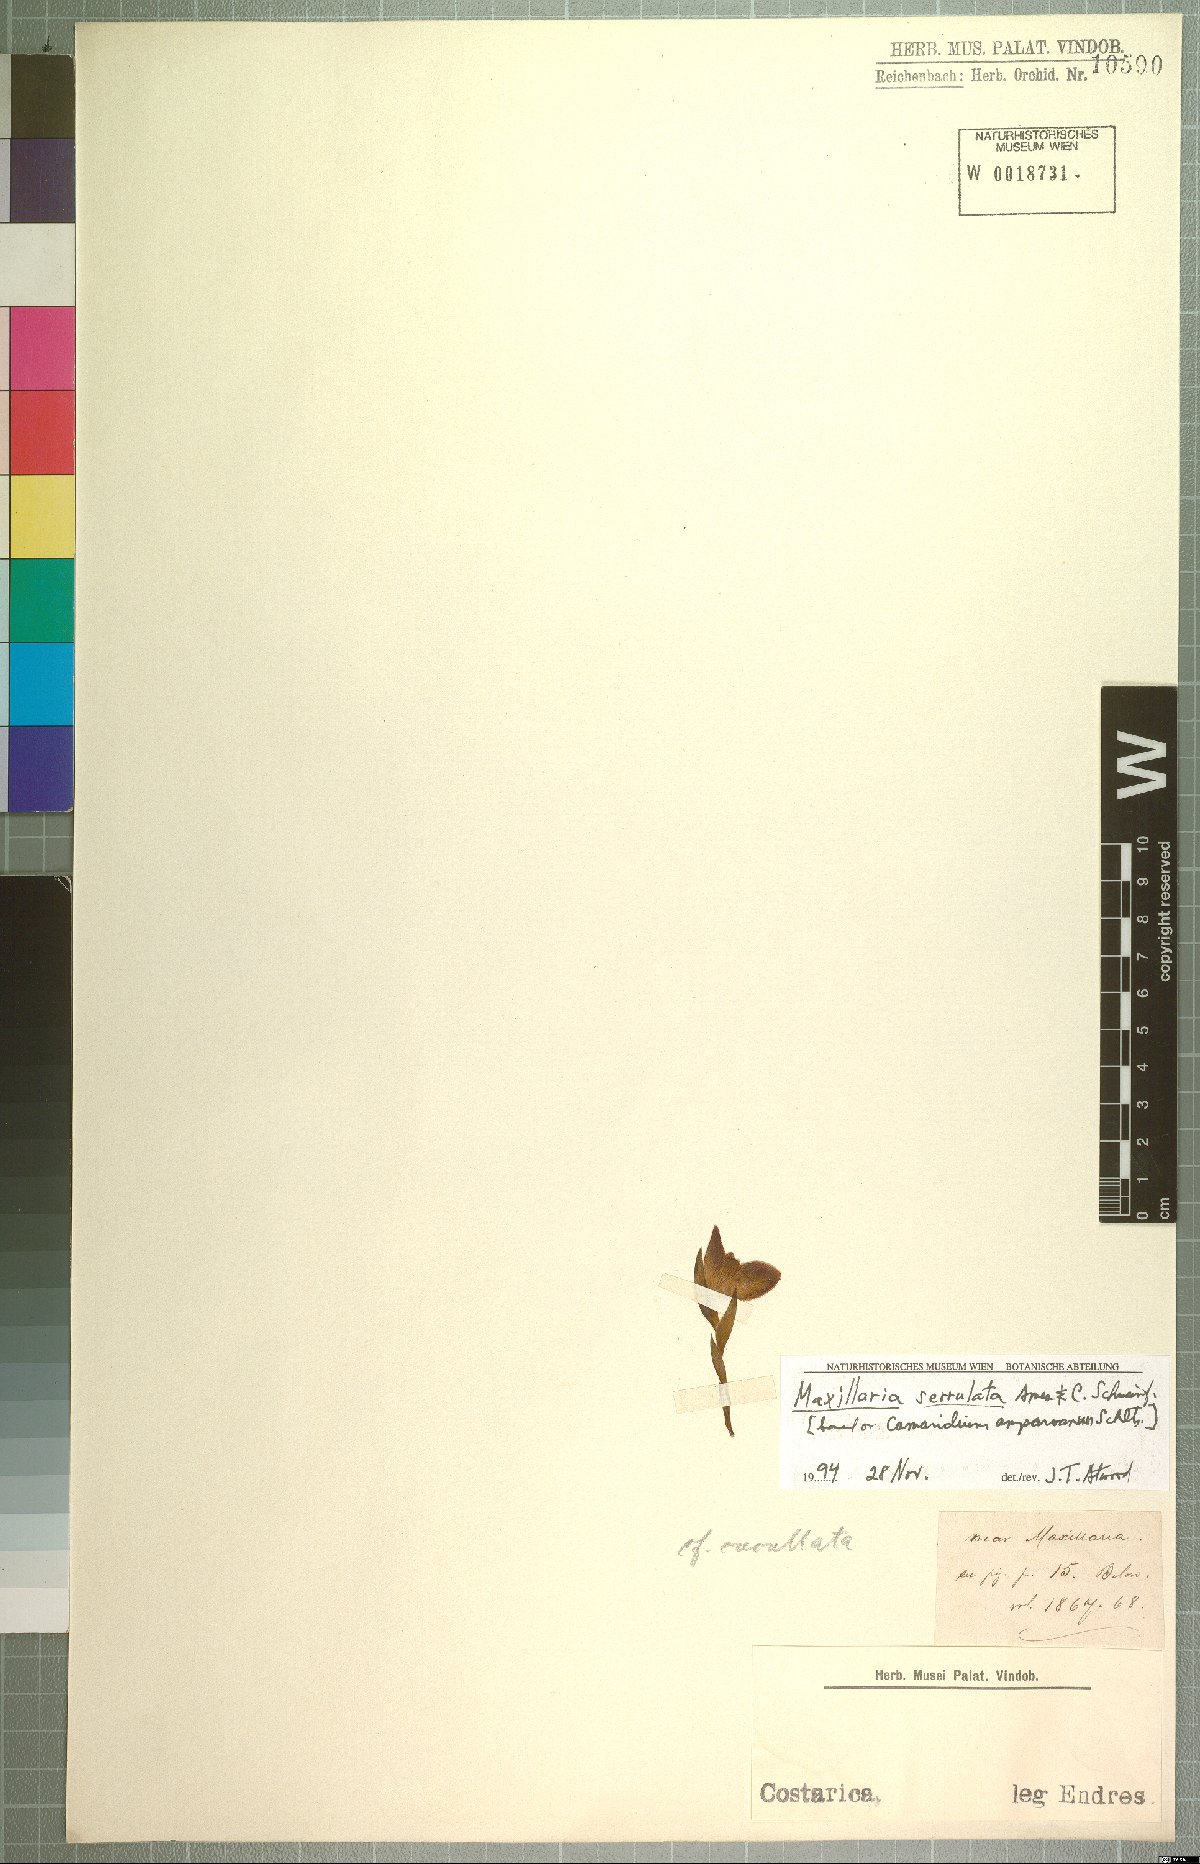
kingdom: Plantae
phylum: Tracheophyta
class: Liliopsida
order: Asparagales
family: Orchidaceae
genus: Maxillaria
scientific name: Maxillaria serrulata
